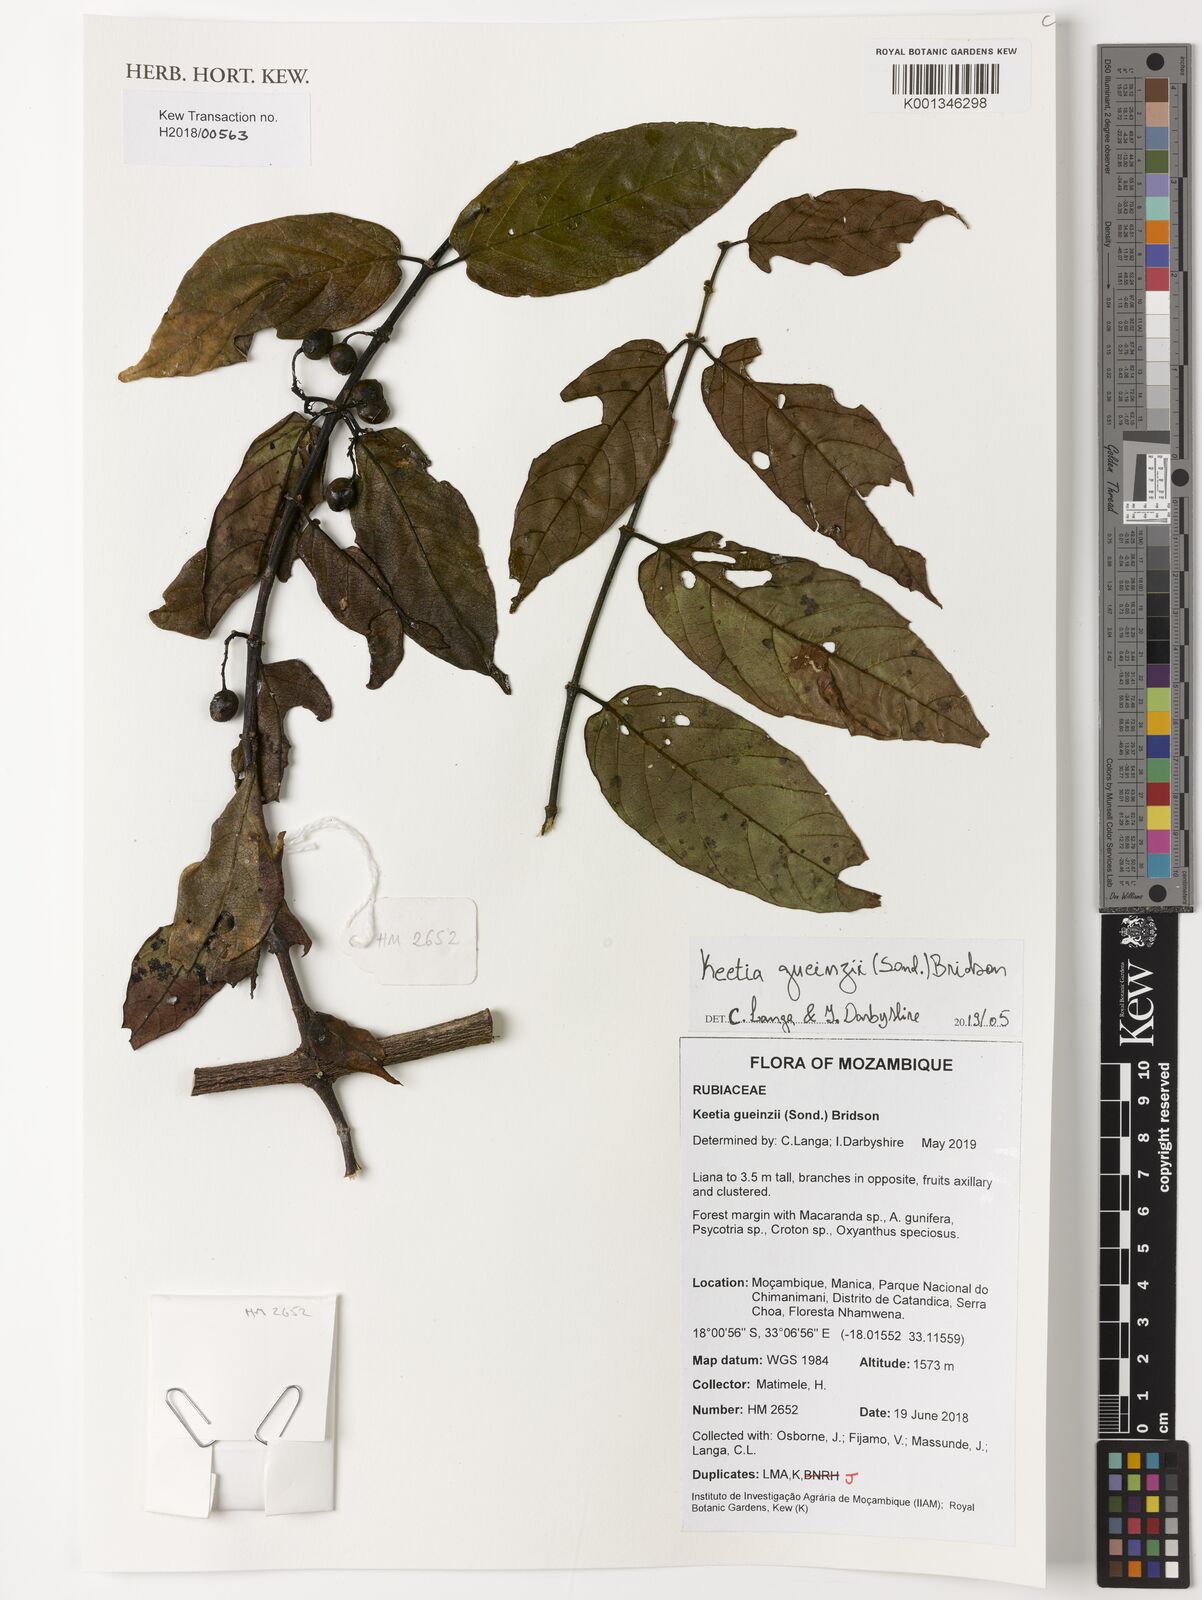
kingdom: Plantae
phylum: Tracheophyta
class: Magnoliopsida
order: Gentianales
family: Rubiaceae
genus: Keetia
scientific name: Keetia gueinzii
